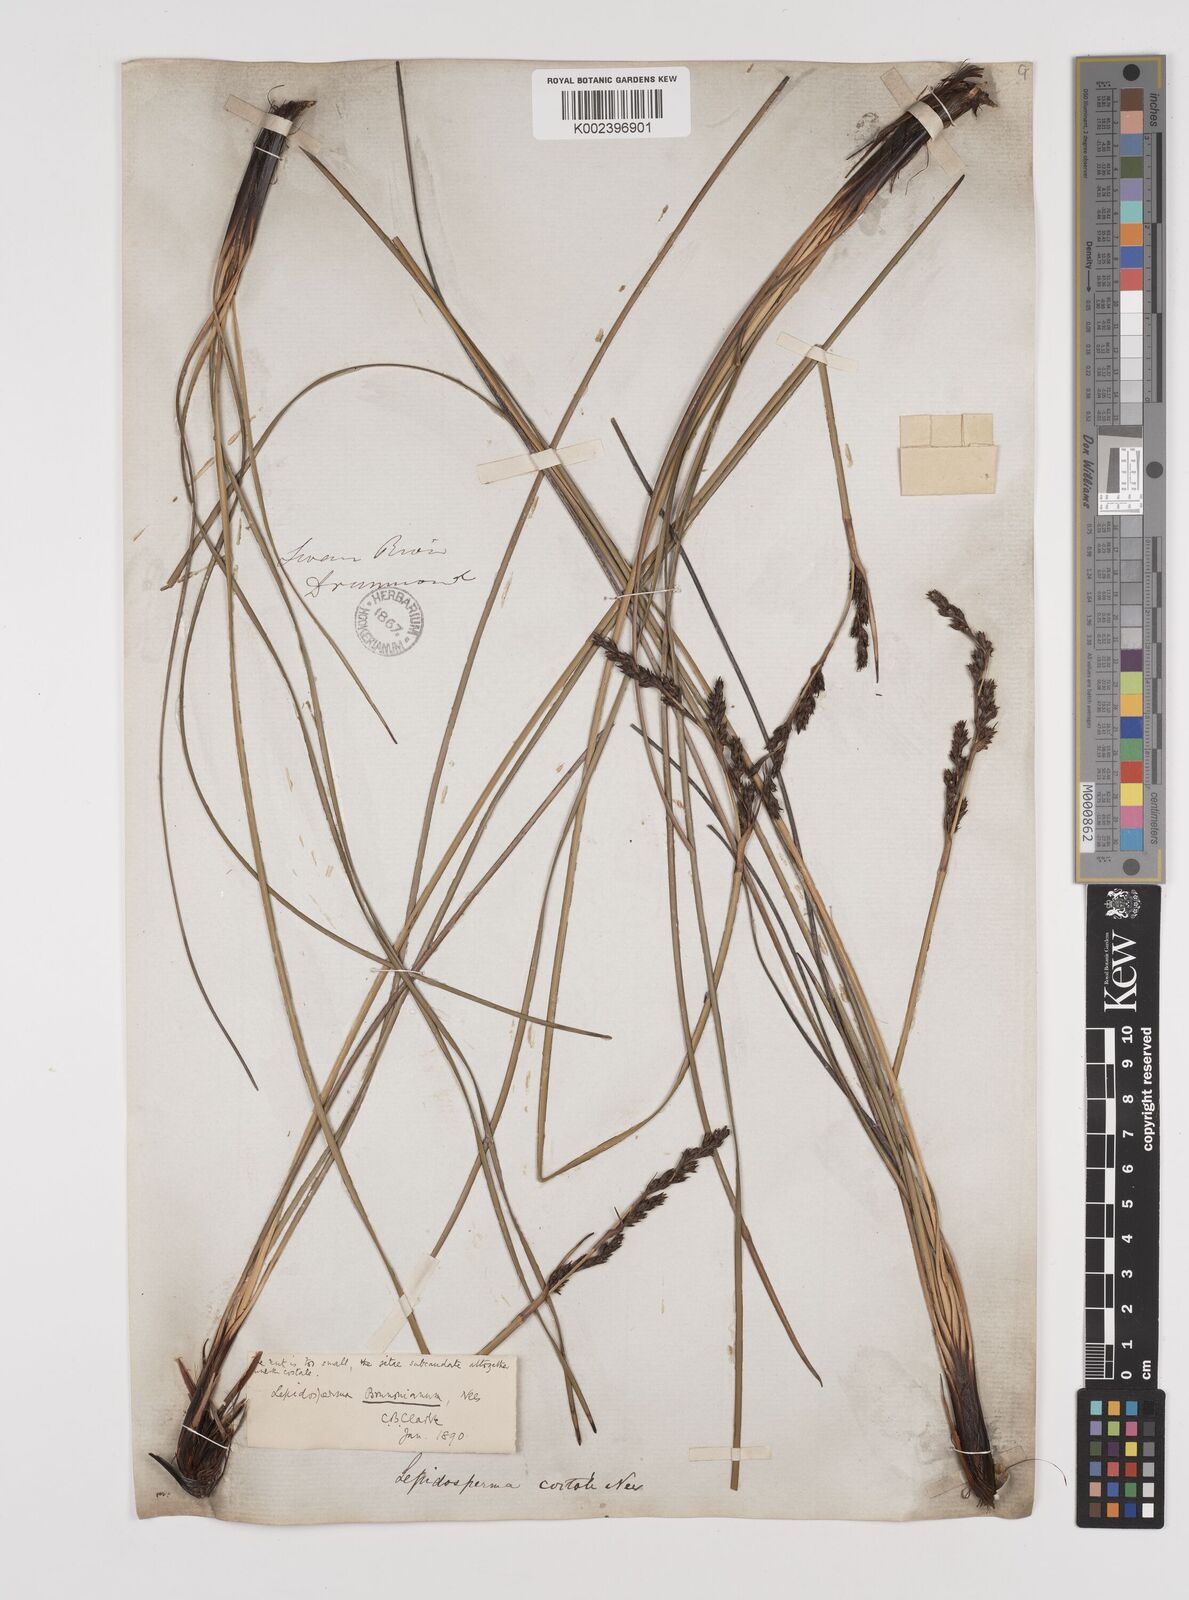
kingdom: Plantae
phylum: Tracheophyta
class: Liliopsida
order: Poales
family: Cyperaceae
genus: Lepidosperma
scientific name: Lepidosperma sieberi
